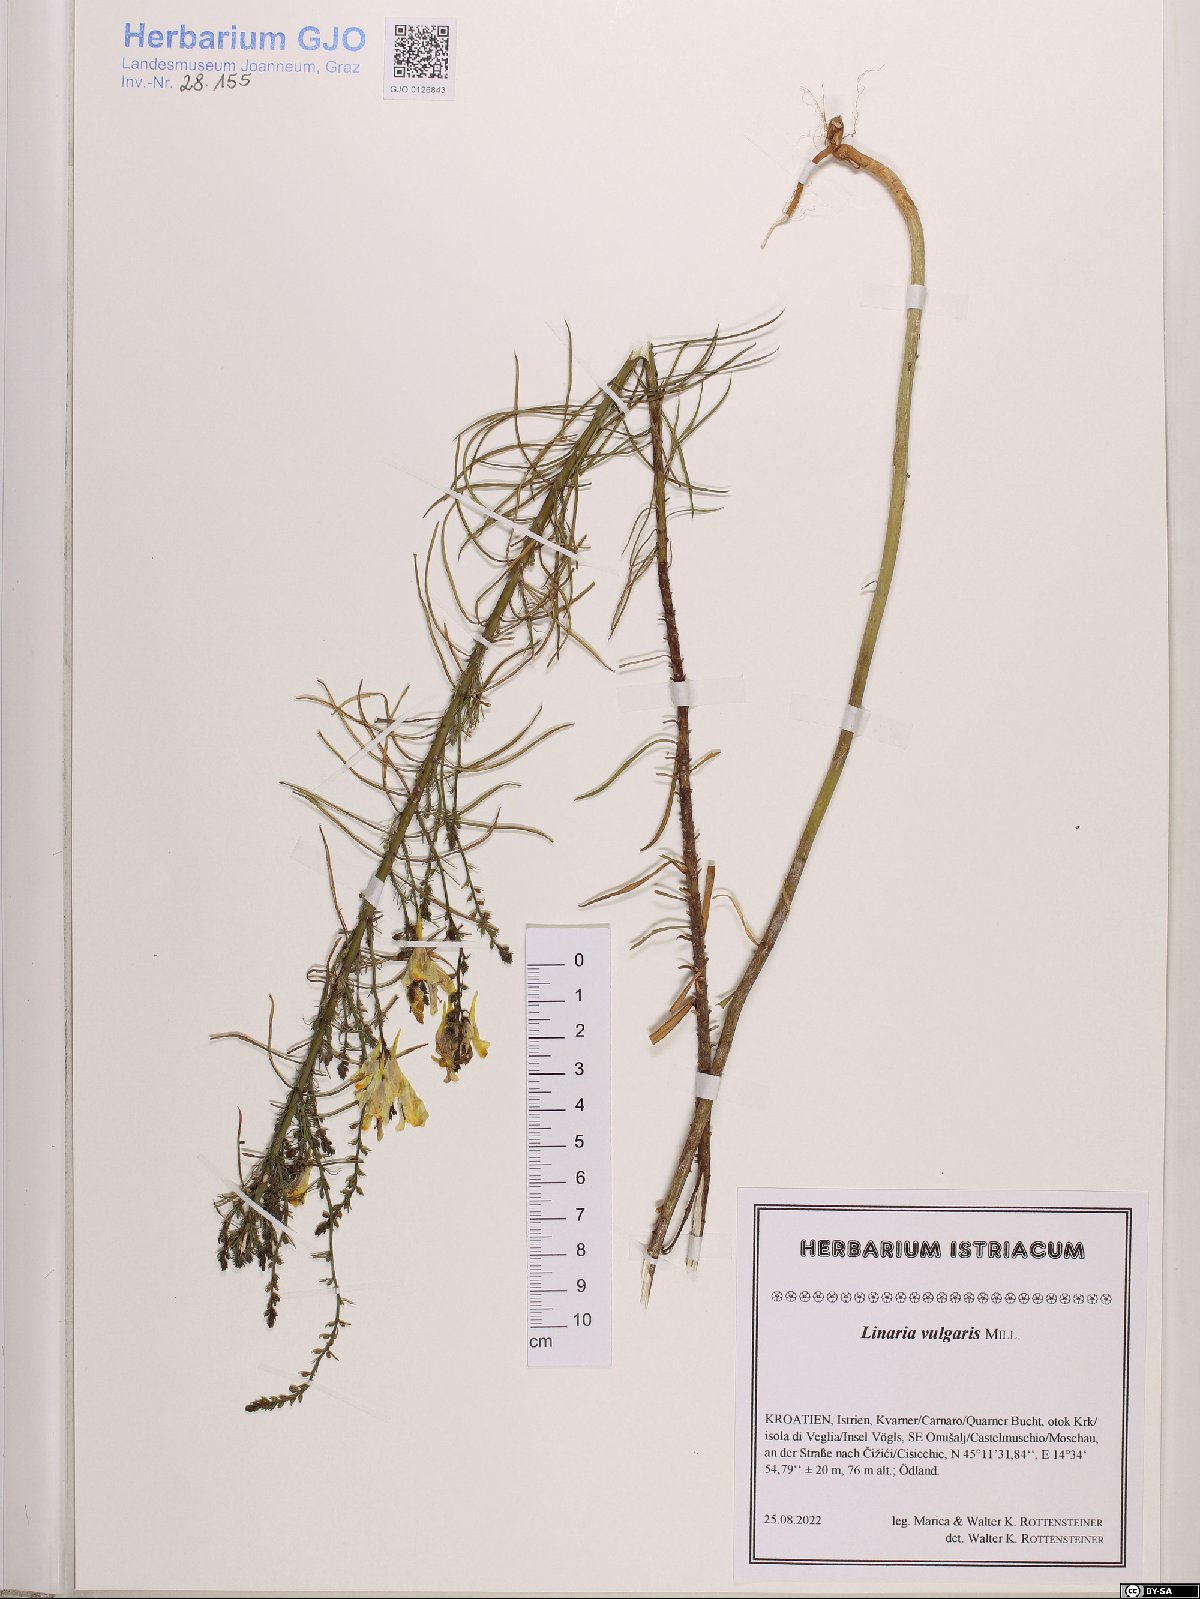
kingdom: Plantae
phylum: Tracheophyta
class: Magnoliopsida
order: Lamiales
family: Plantaginaceae
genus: Linaria
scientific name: Linaria vulgaris
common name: Butter and eggs
